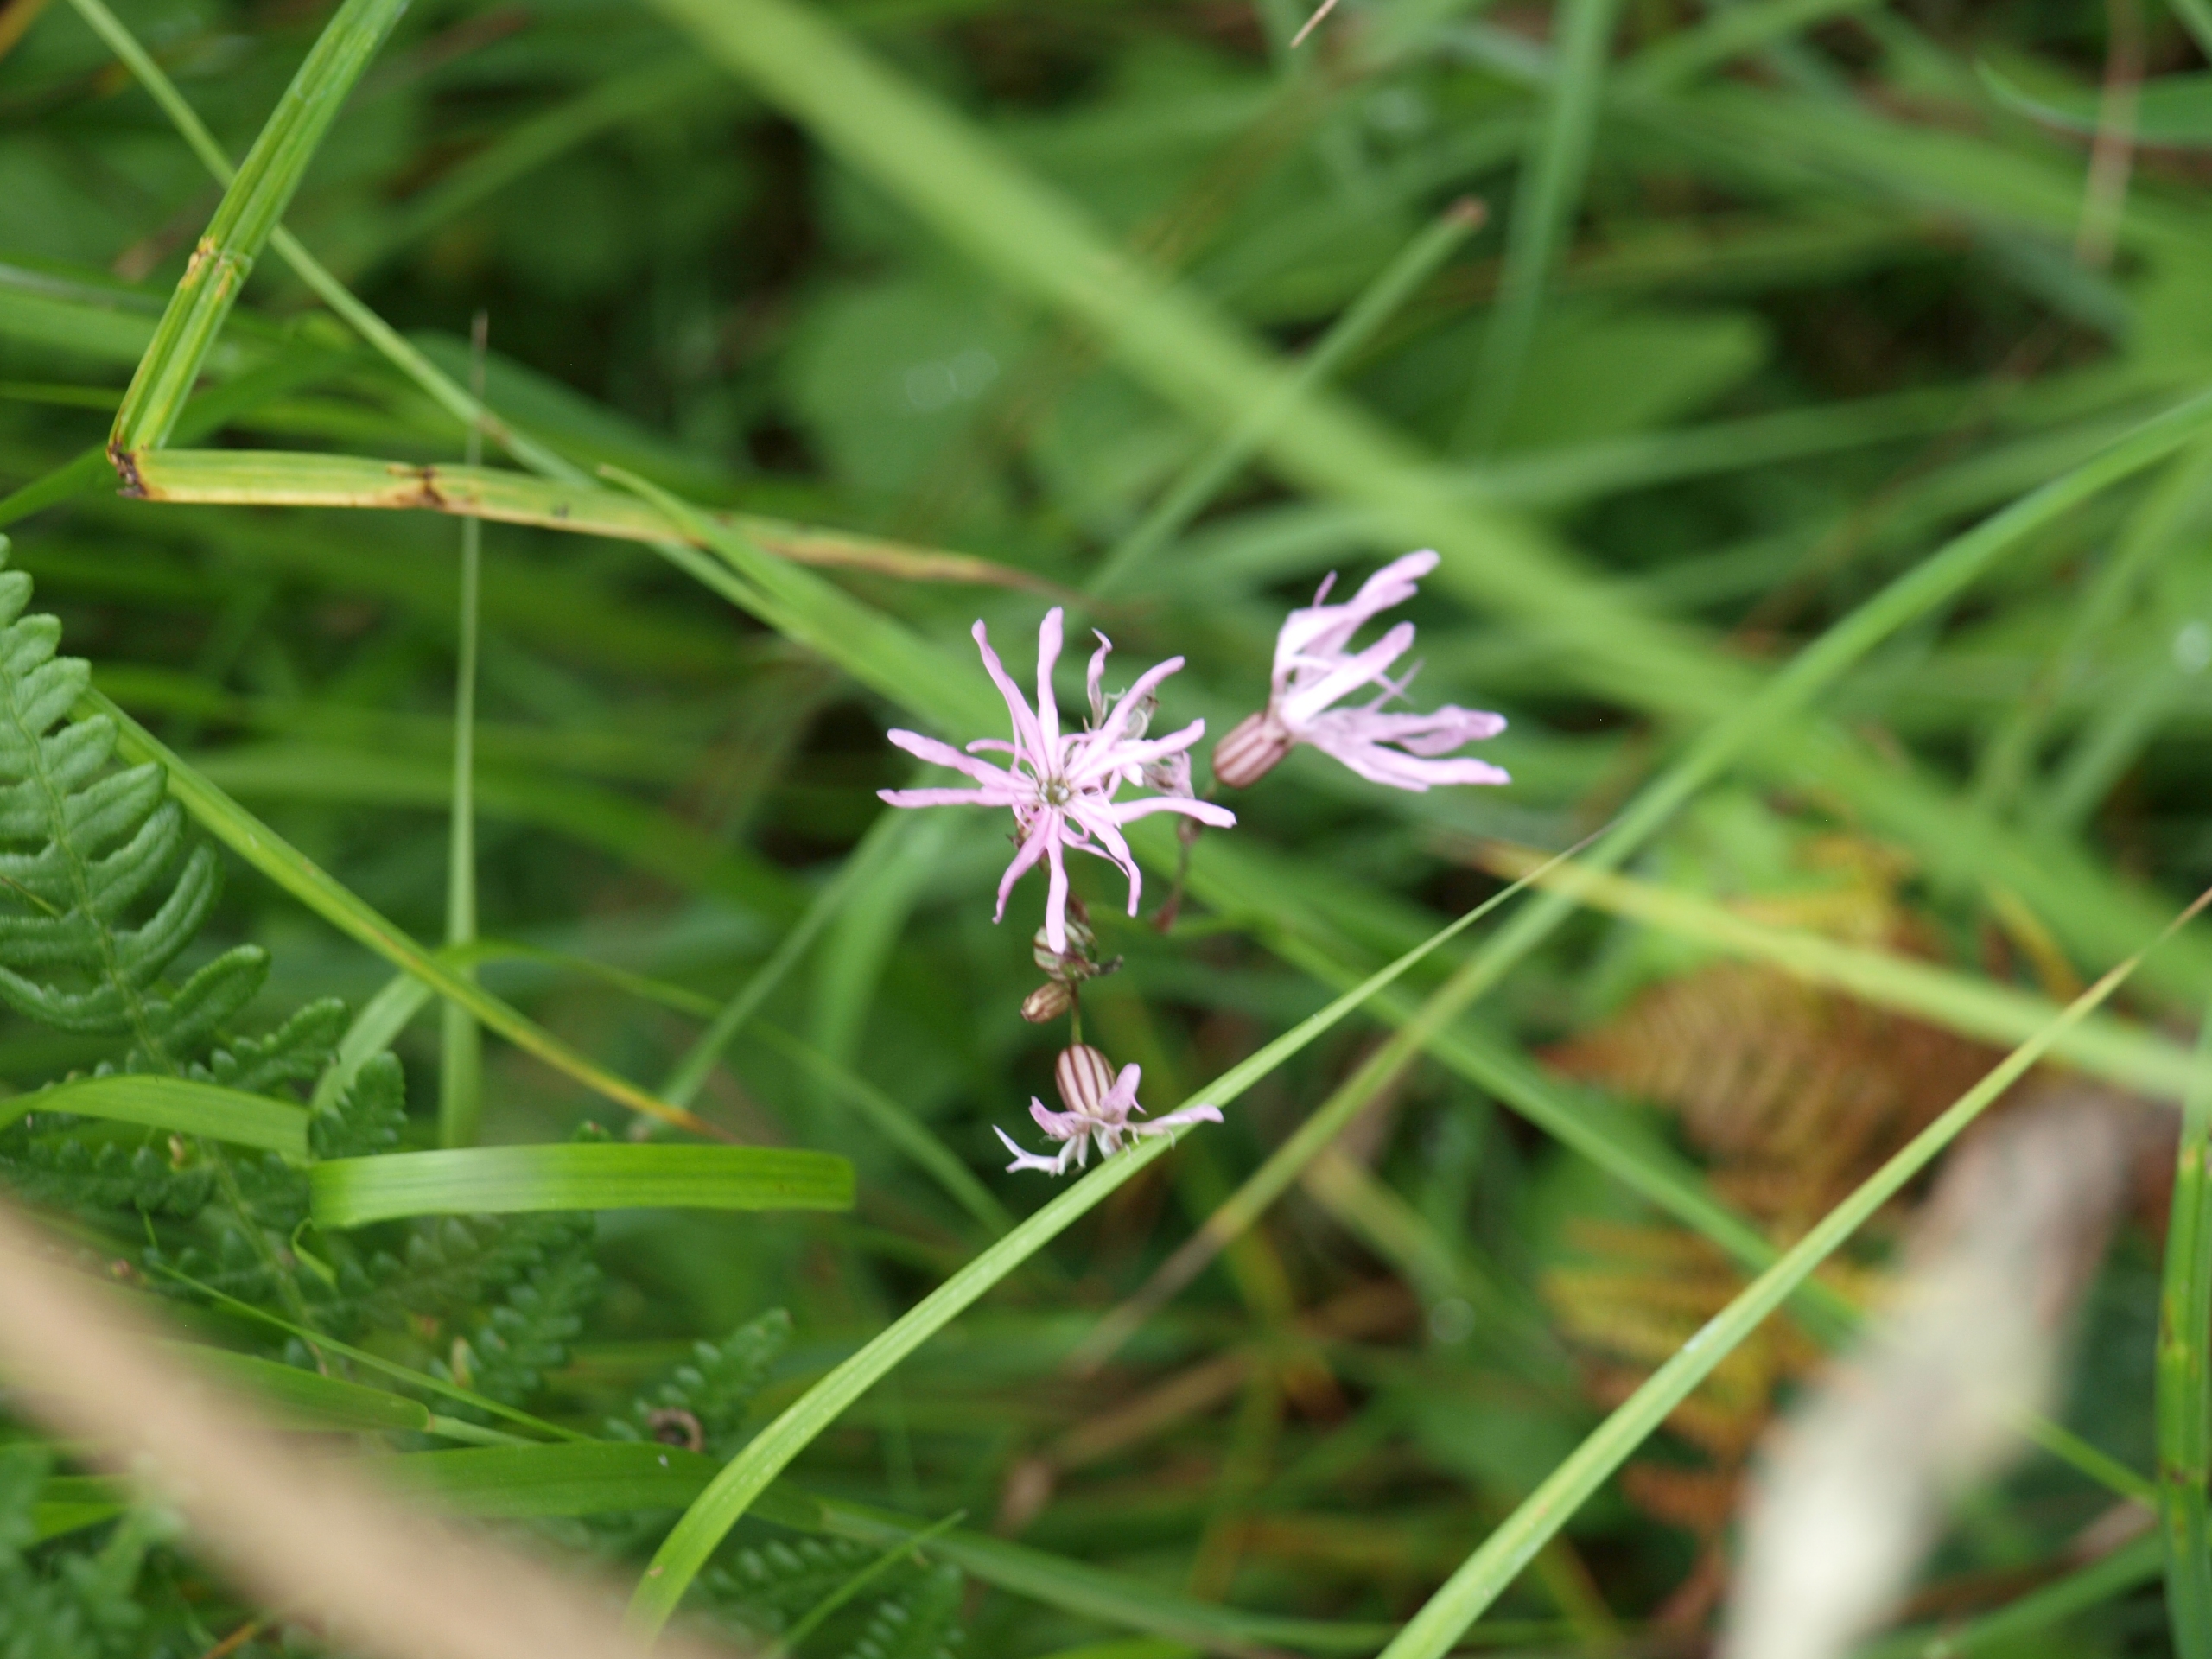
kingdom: Plantae
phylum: Tracheophyta
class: Magnoliopsida
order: Caryophyllales
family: Caryophyllaceae
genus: Silene
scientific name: Silene flos-cuculi
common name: Trævlekrone
